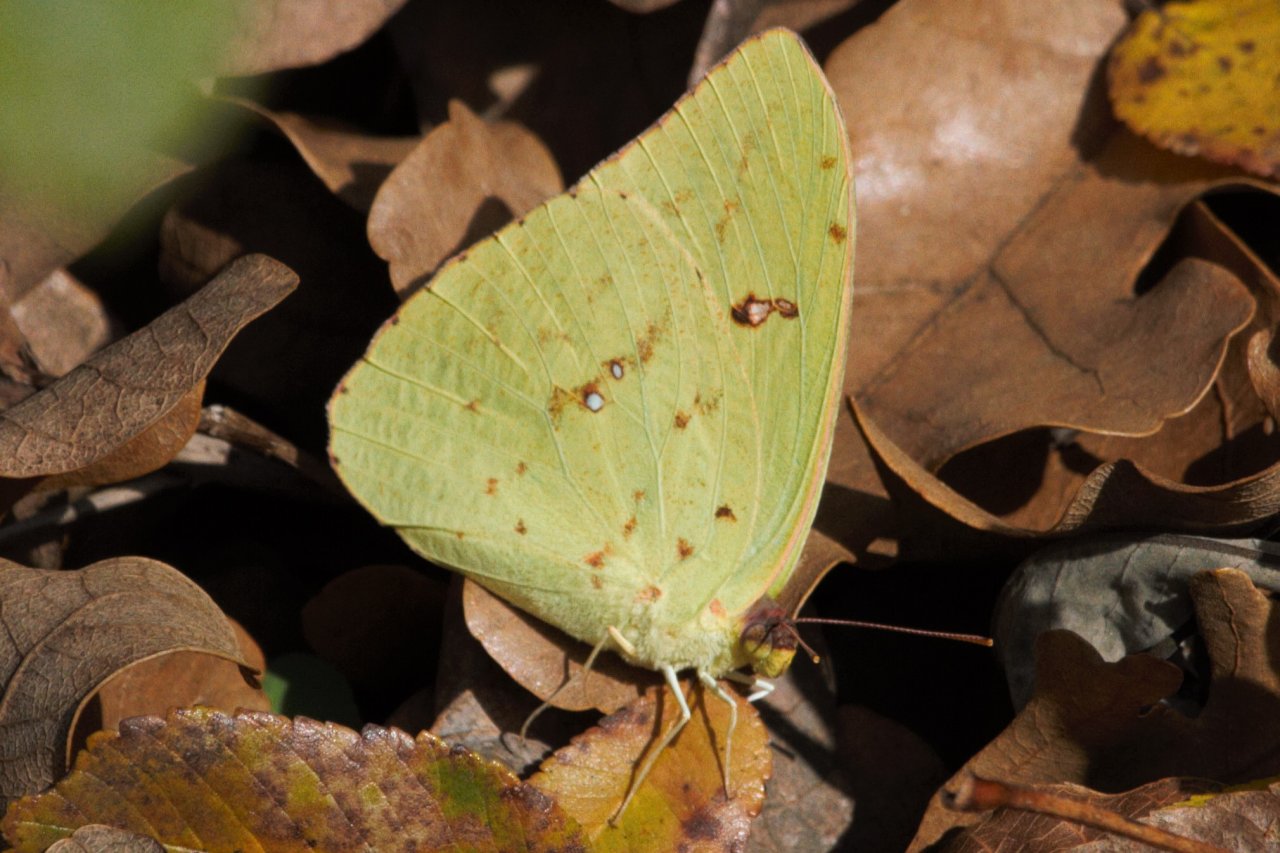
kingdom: Animalia
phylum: Arthropoda
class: Insecta
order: Lepidoptera
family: Pieridae
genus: Phoebis
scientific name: Phoebis sennae
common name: Cloudless Sulphur
